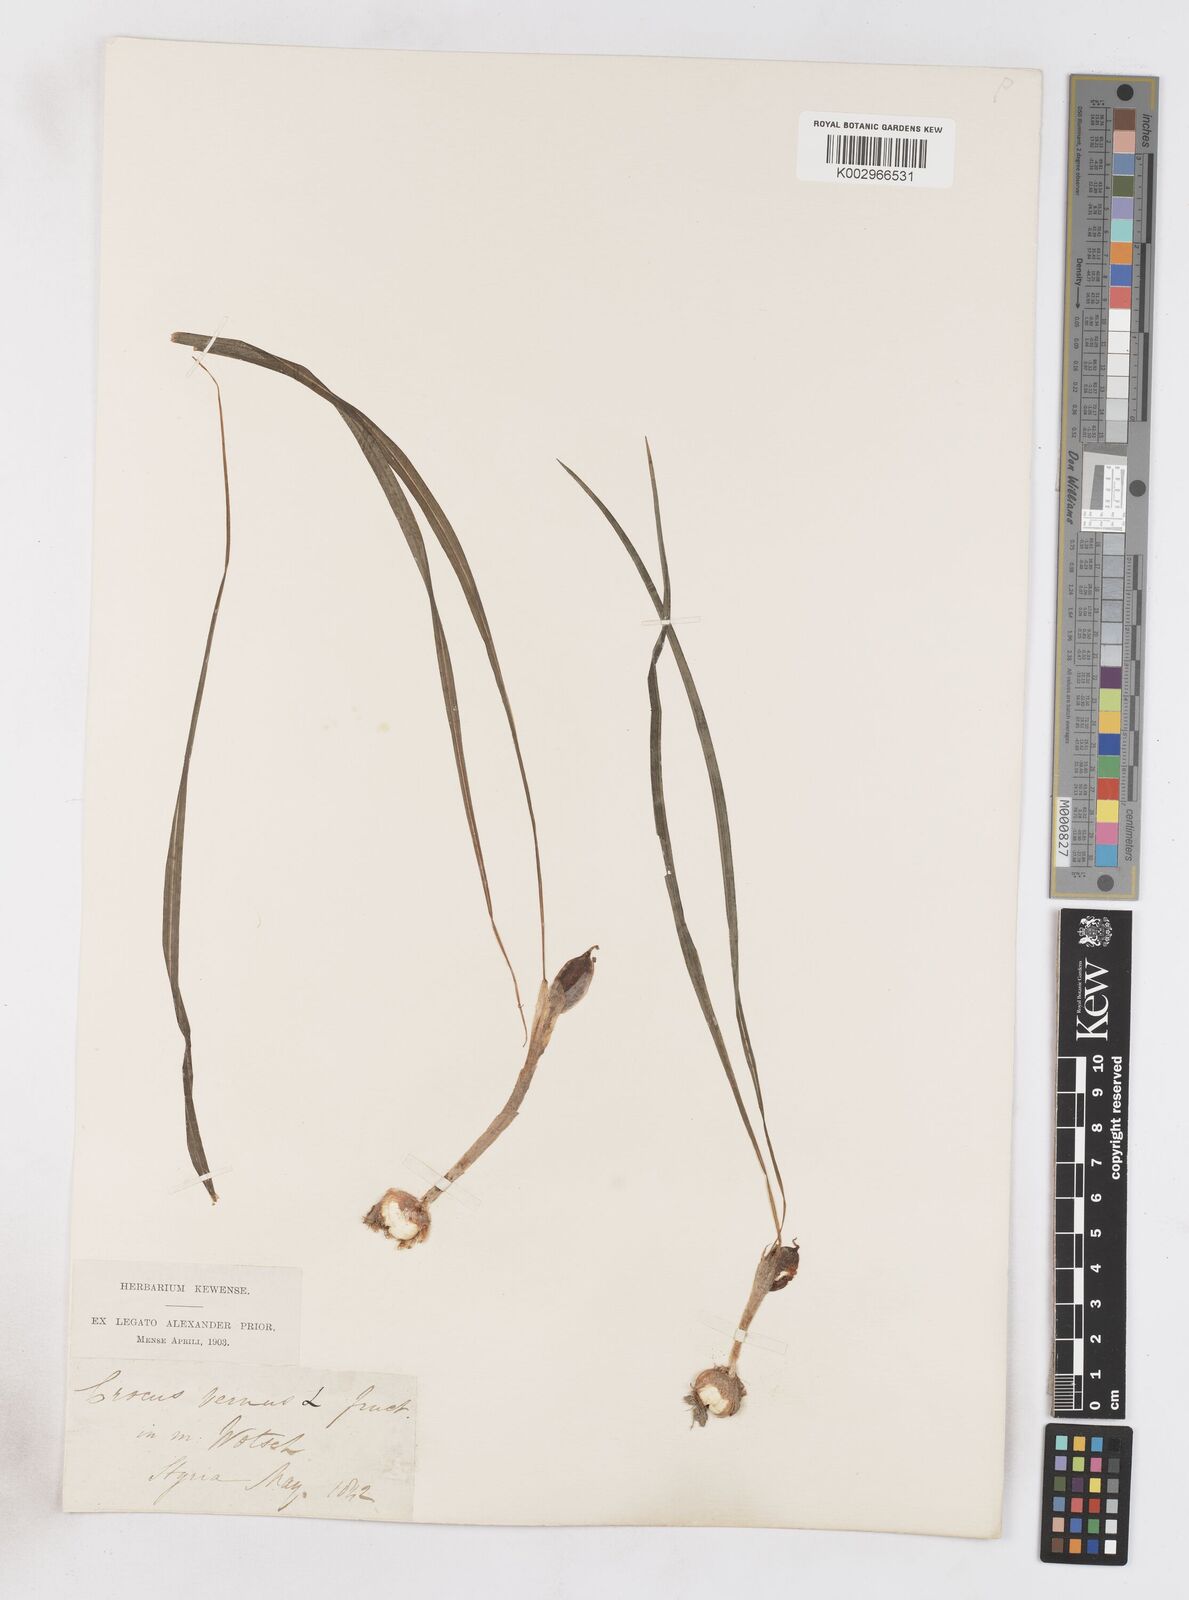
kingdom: Plantae
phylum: Tracheophyta
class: Liliopsida
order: Asparagales
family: Iridaceae
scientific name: Iridaceae
